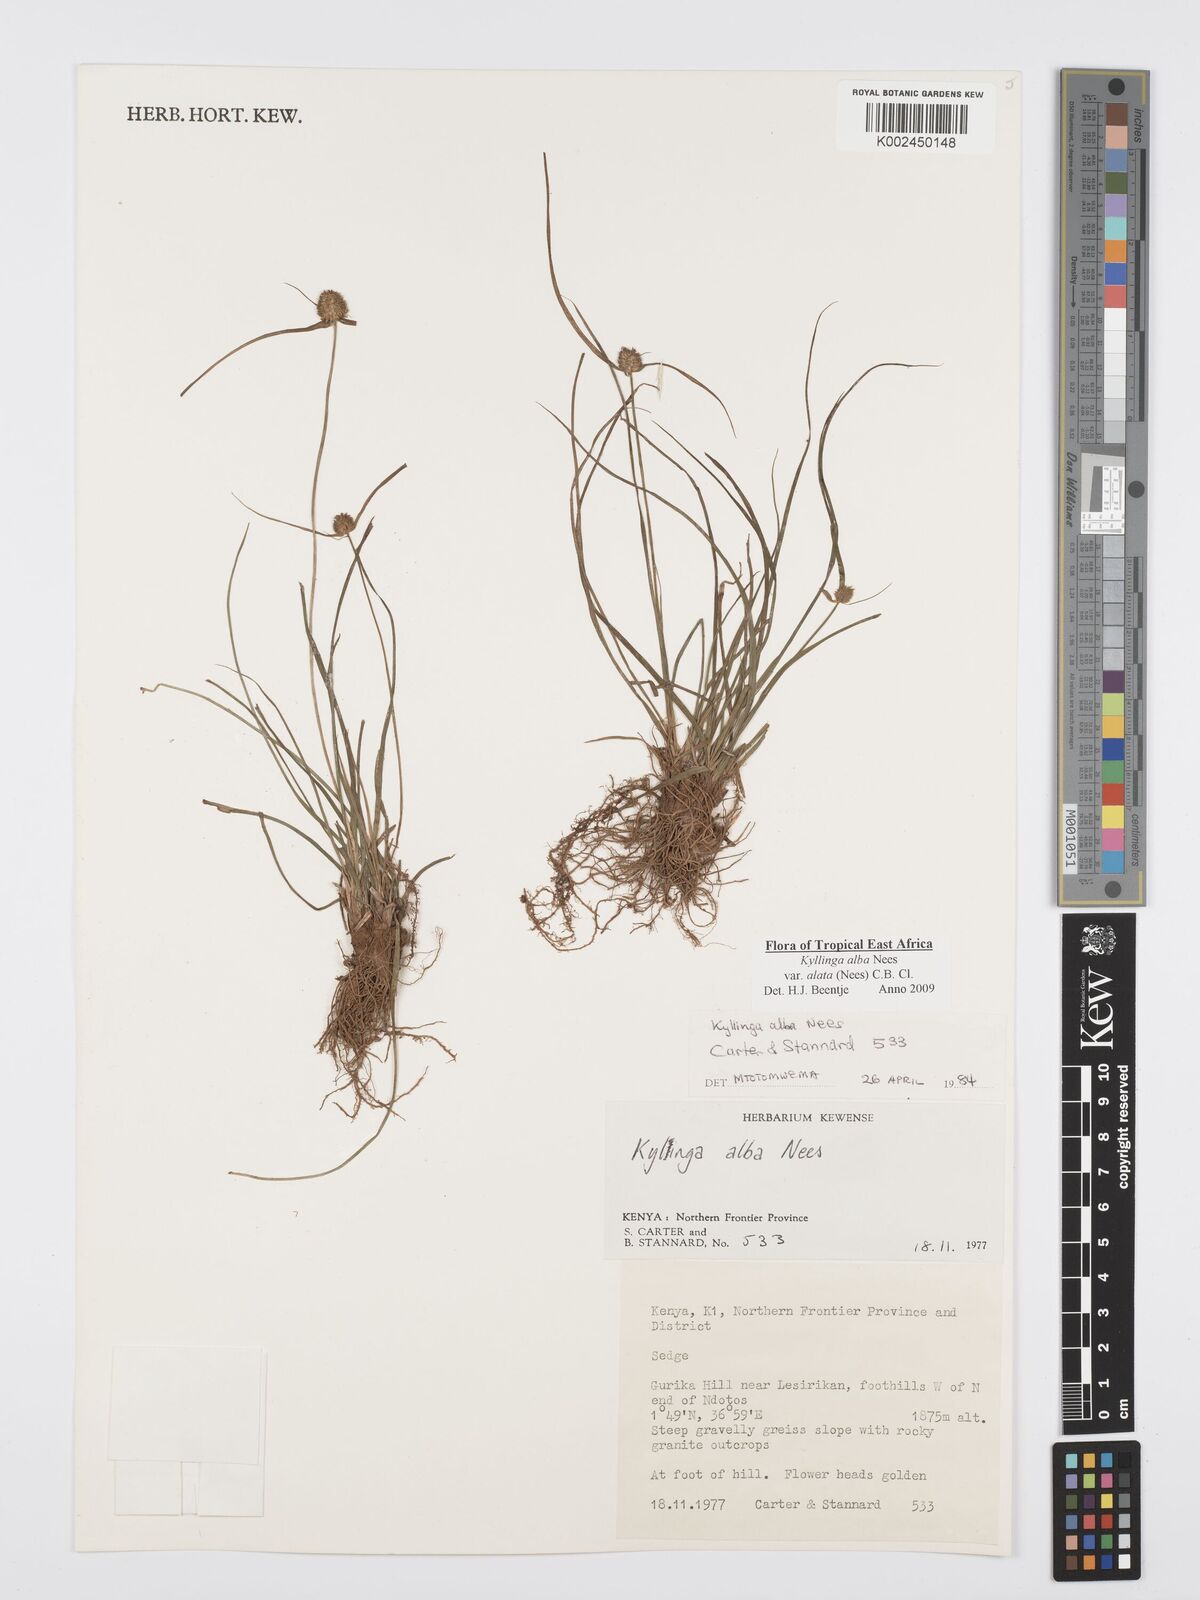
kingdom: Plantae
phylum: Tracheophyta
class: Liliopsida
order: Poales
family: Cyperaceae
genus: Cyperus
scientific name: Cyperus alatus
